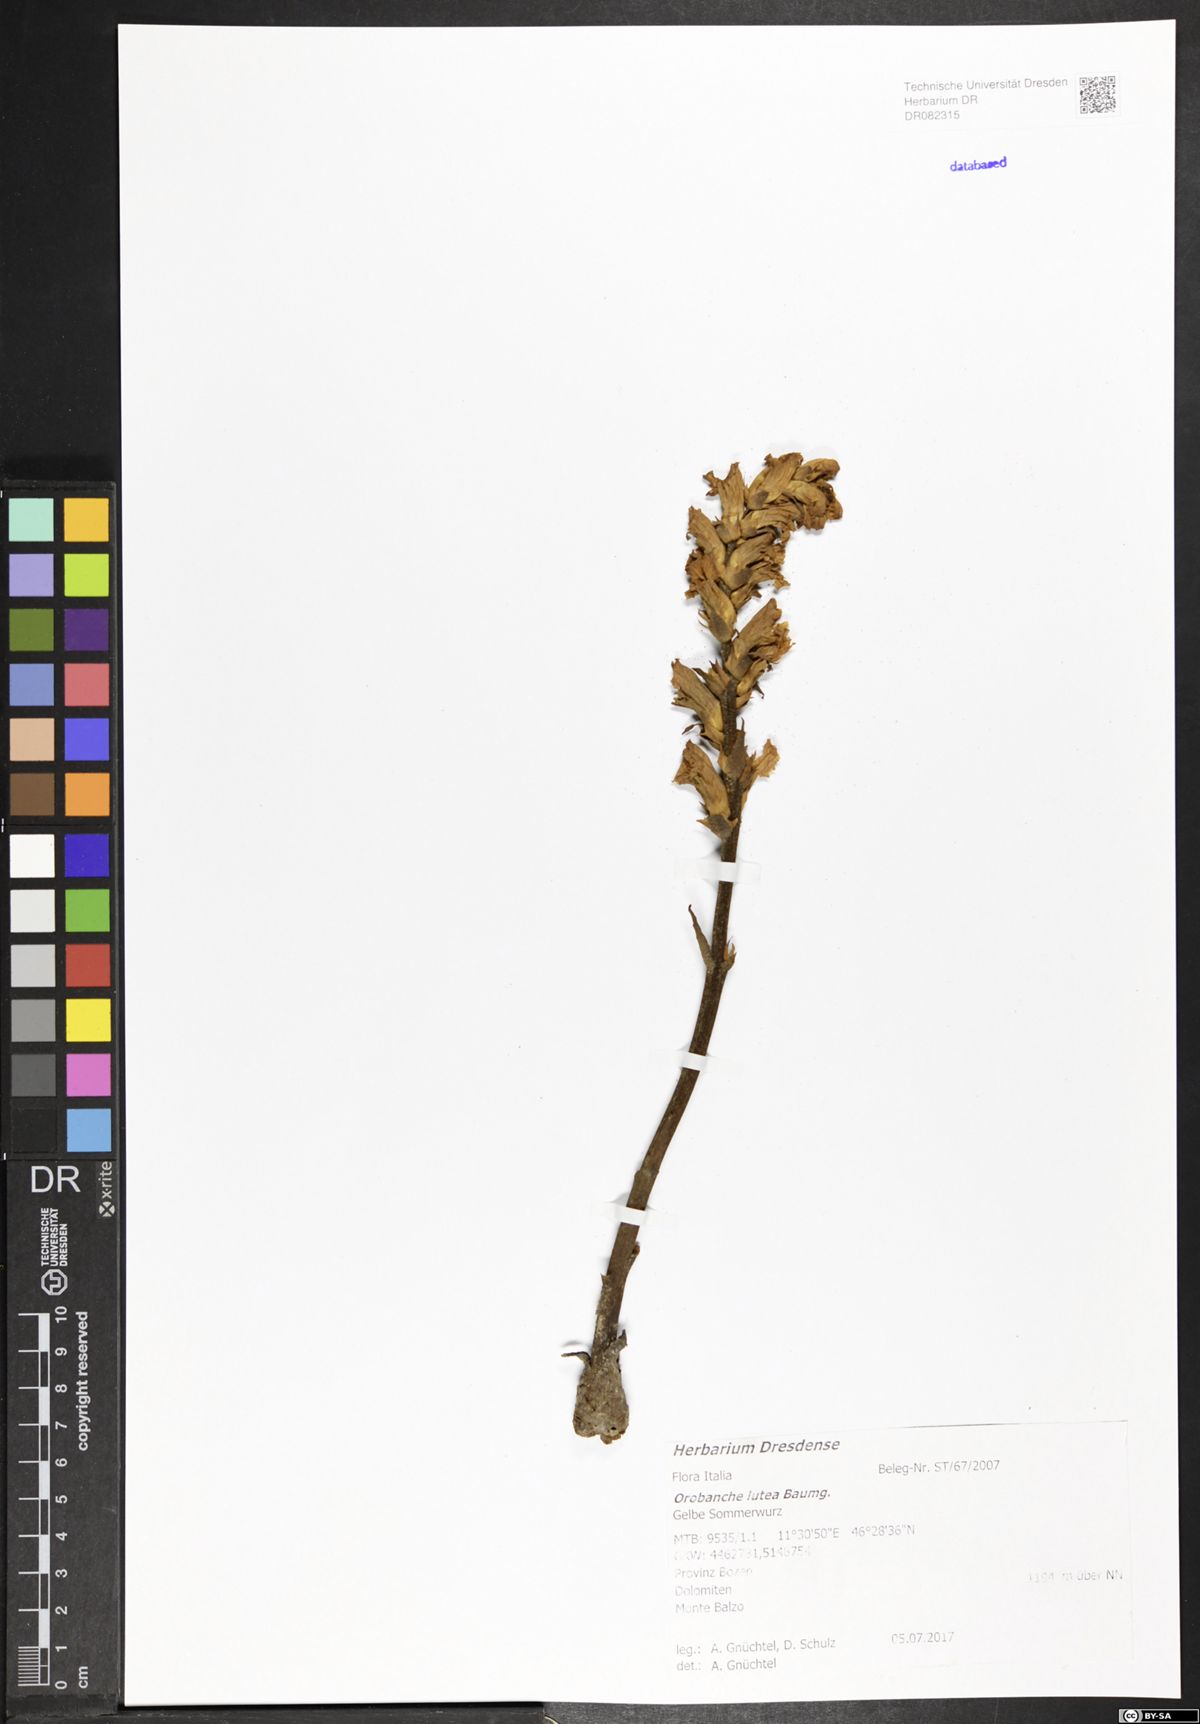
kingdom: Plantae
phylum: Tracheophyta
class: Magnoliopsida
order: Lamiales
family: Orobanchaceae
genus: Orobanche
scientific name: Orobanche lutea
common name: Yellow broomrape
